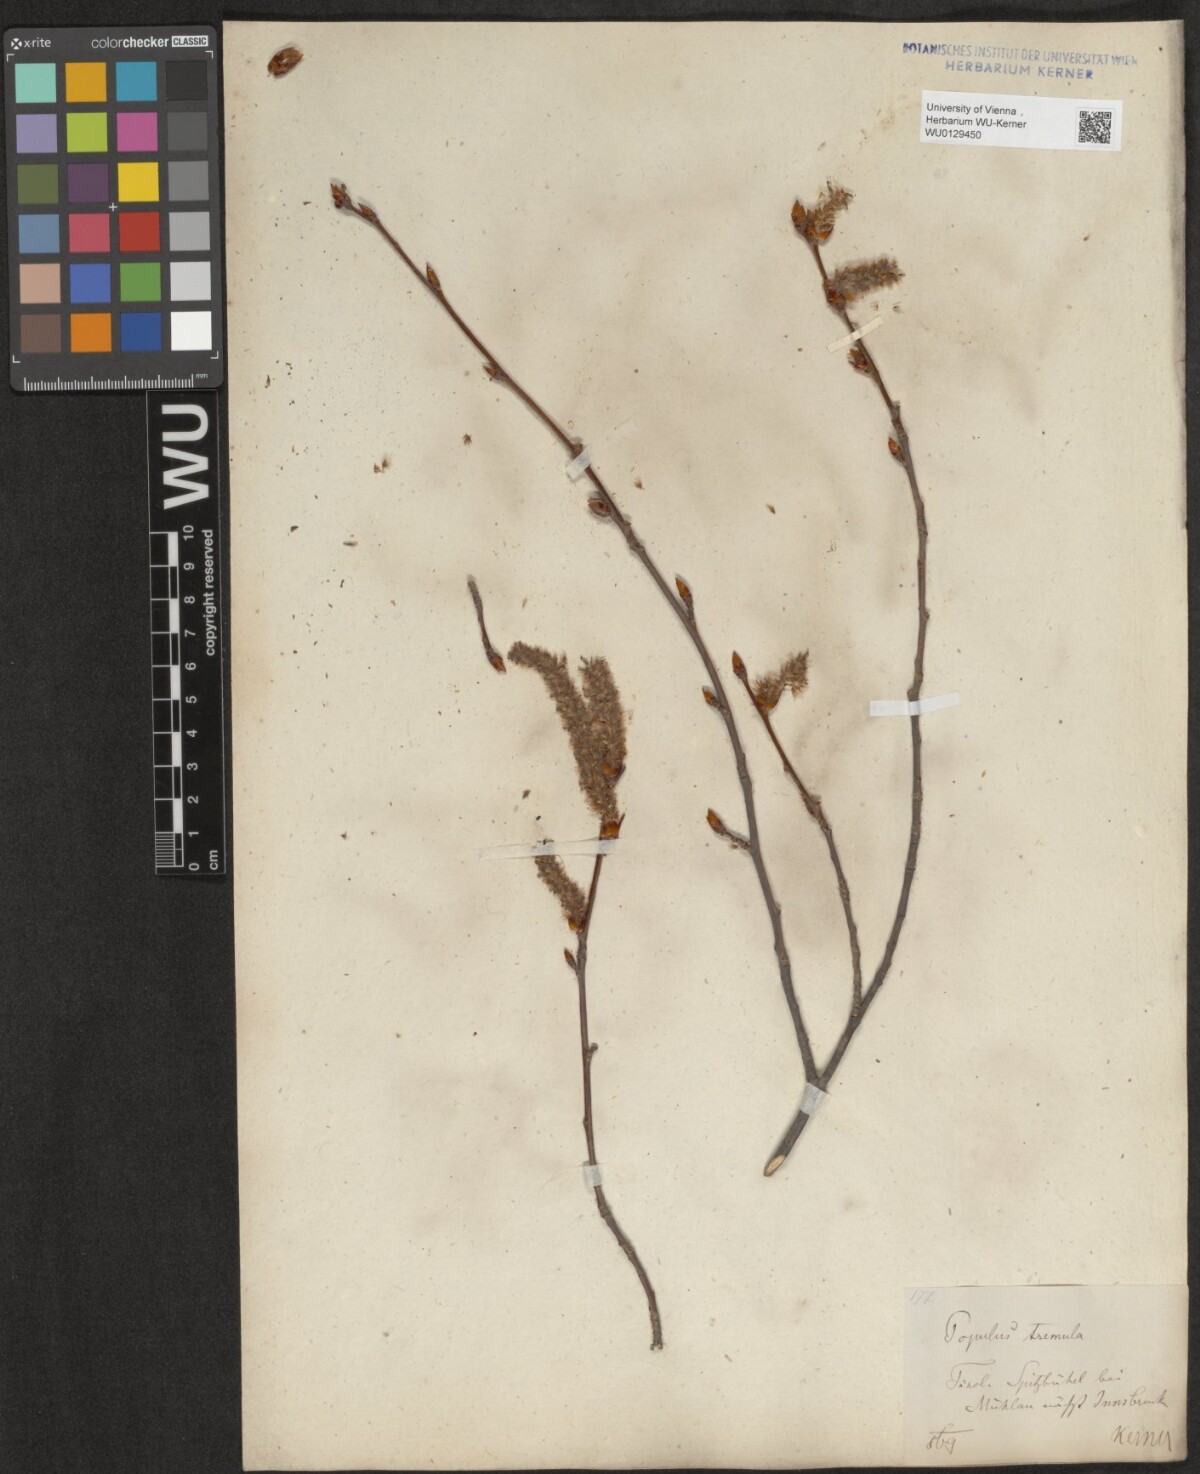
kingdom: Plantae
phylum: Tracheophyta
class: Magnoliopsida
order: Malpighiales
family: Salicaceae
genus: Populus
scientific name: Populus tremula
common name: European aspen
